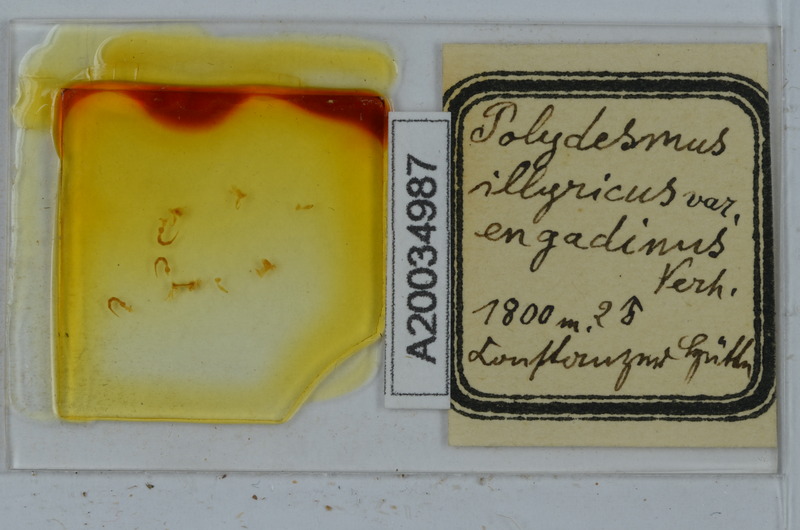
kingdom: Animalia
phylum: Arthropoda
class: Diplopoda
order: Polydesmida
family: Polydesmidae
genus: Polydesmus
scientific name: Polydesmus complanatus
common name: Flat-backed millipede
